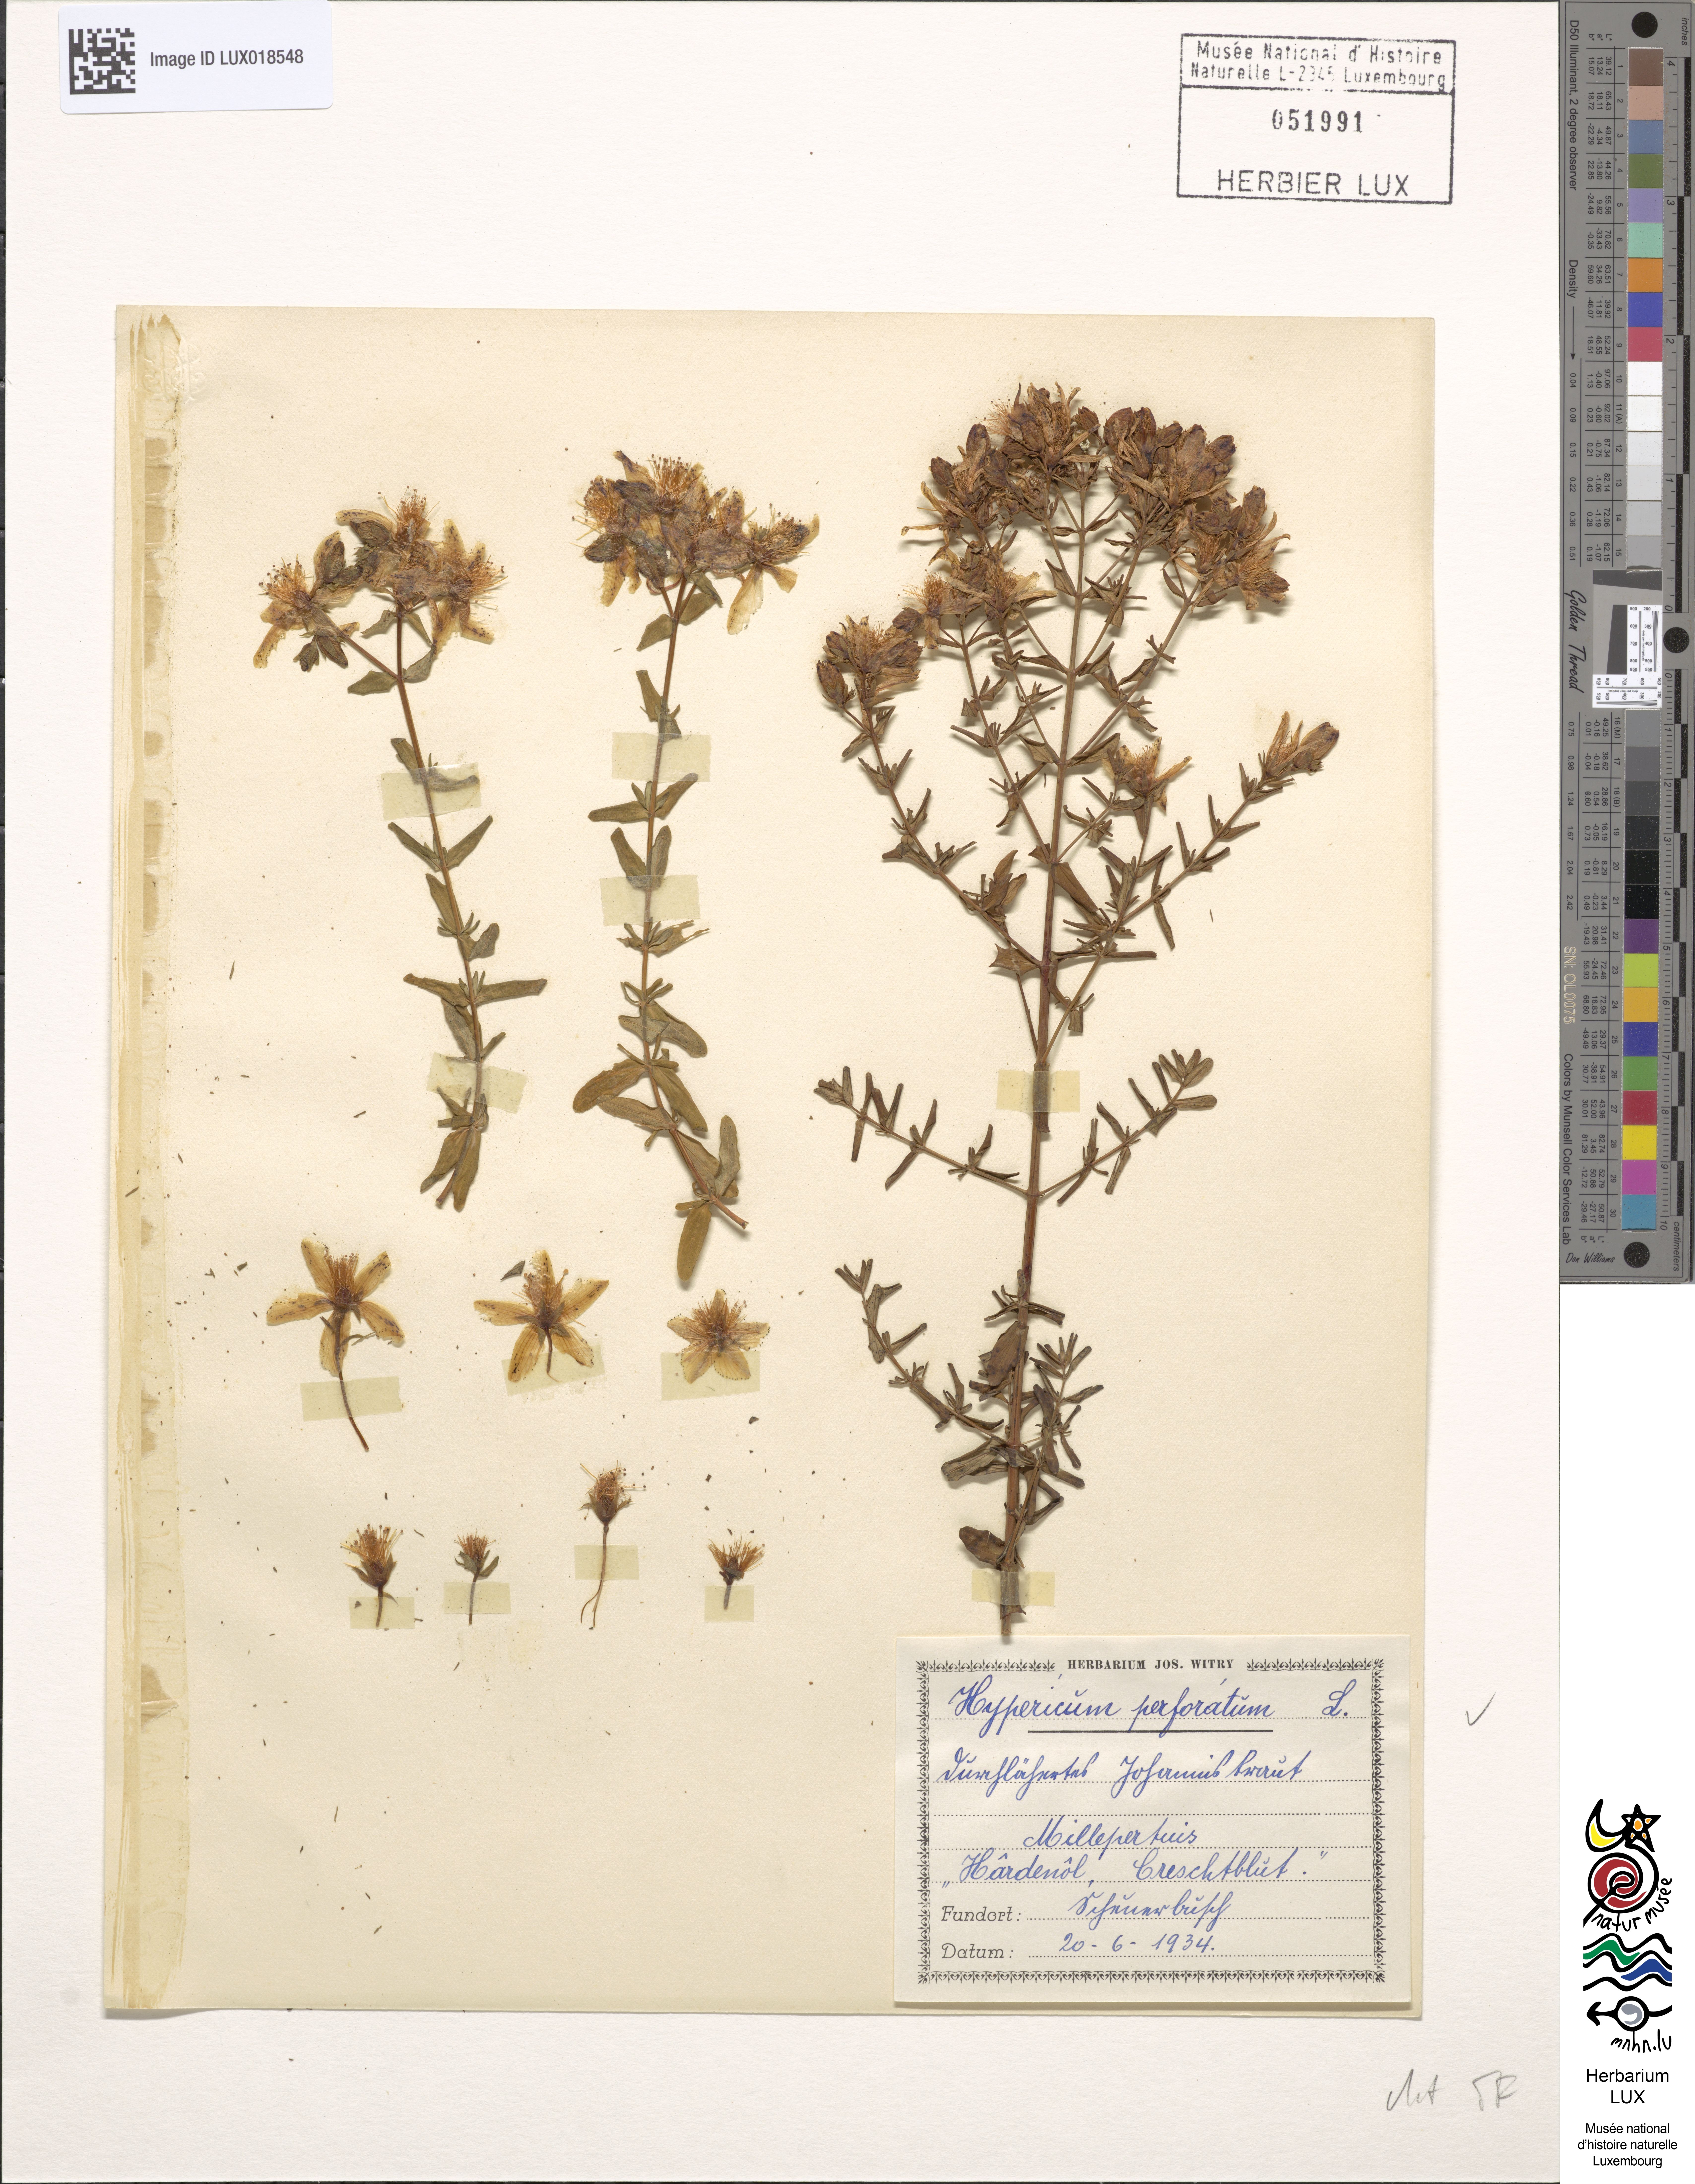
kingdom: Plantae
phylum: Tracheophyta
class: Magnoliopsida
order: Malpighiales
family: Hypericaceae
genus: Hypericum
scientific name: Hypericum perforatum
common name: Common st. johnswort
